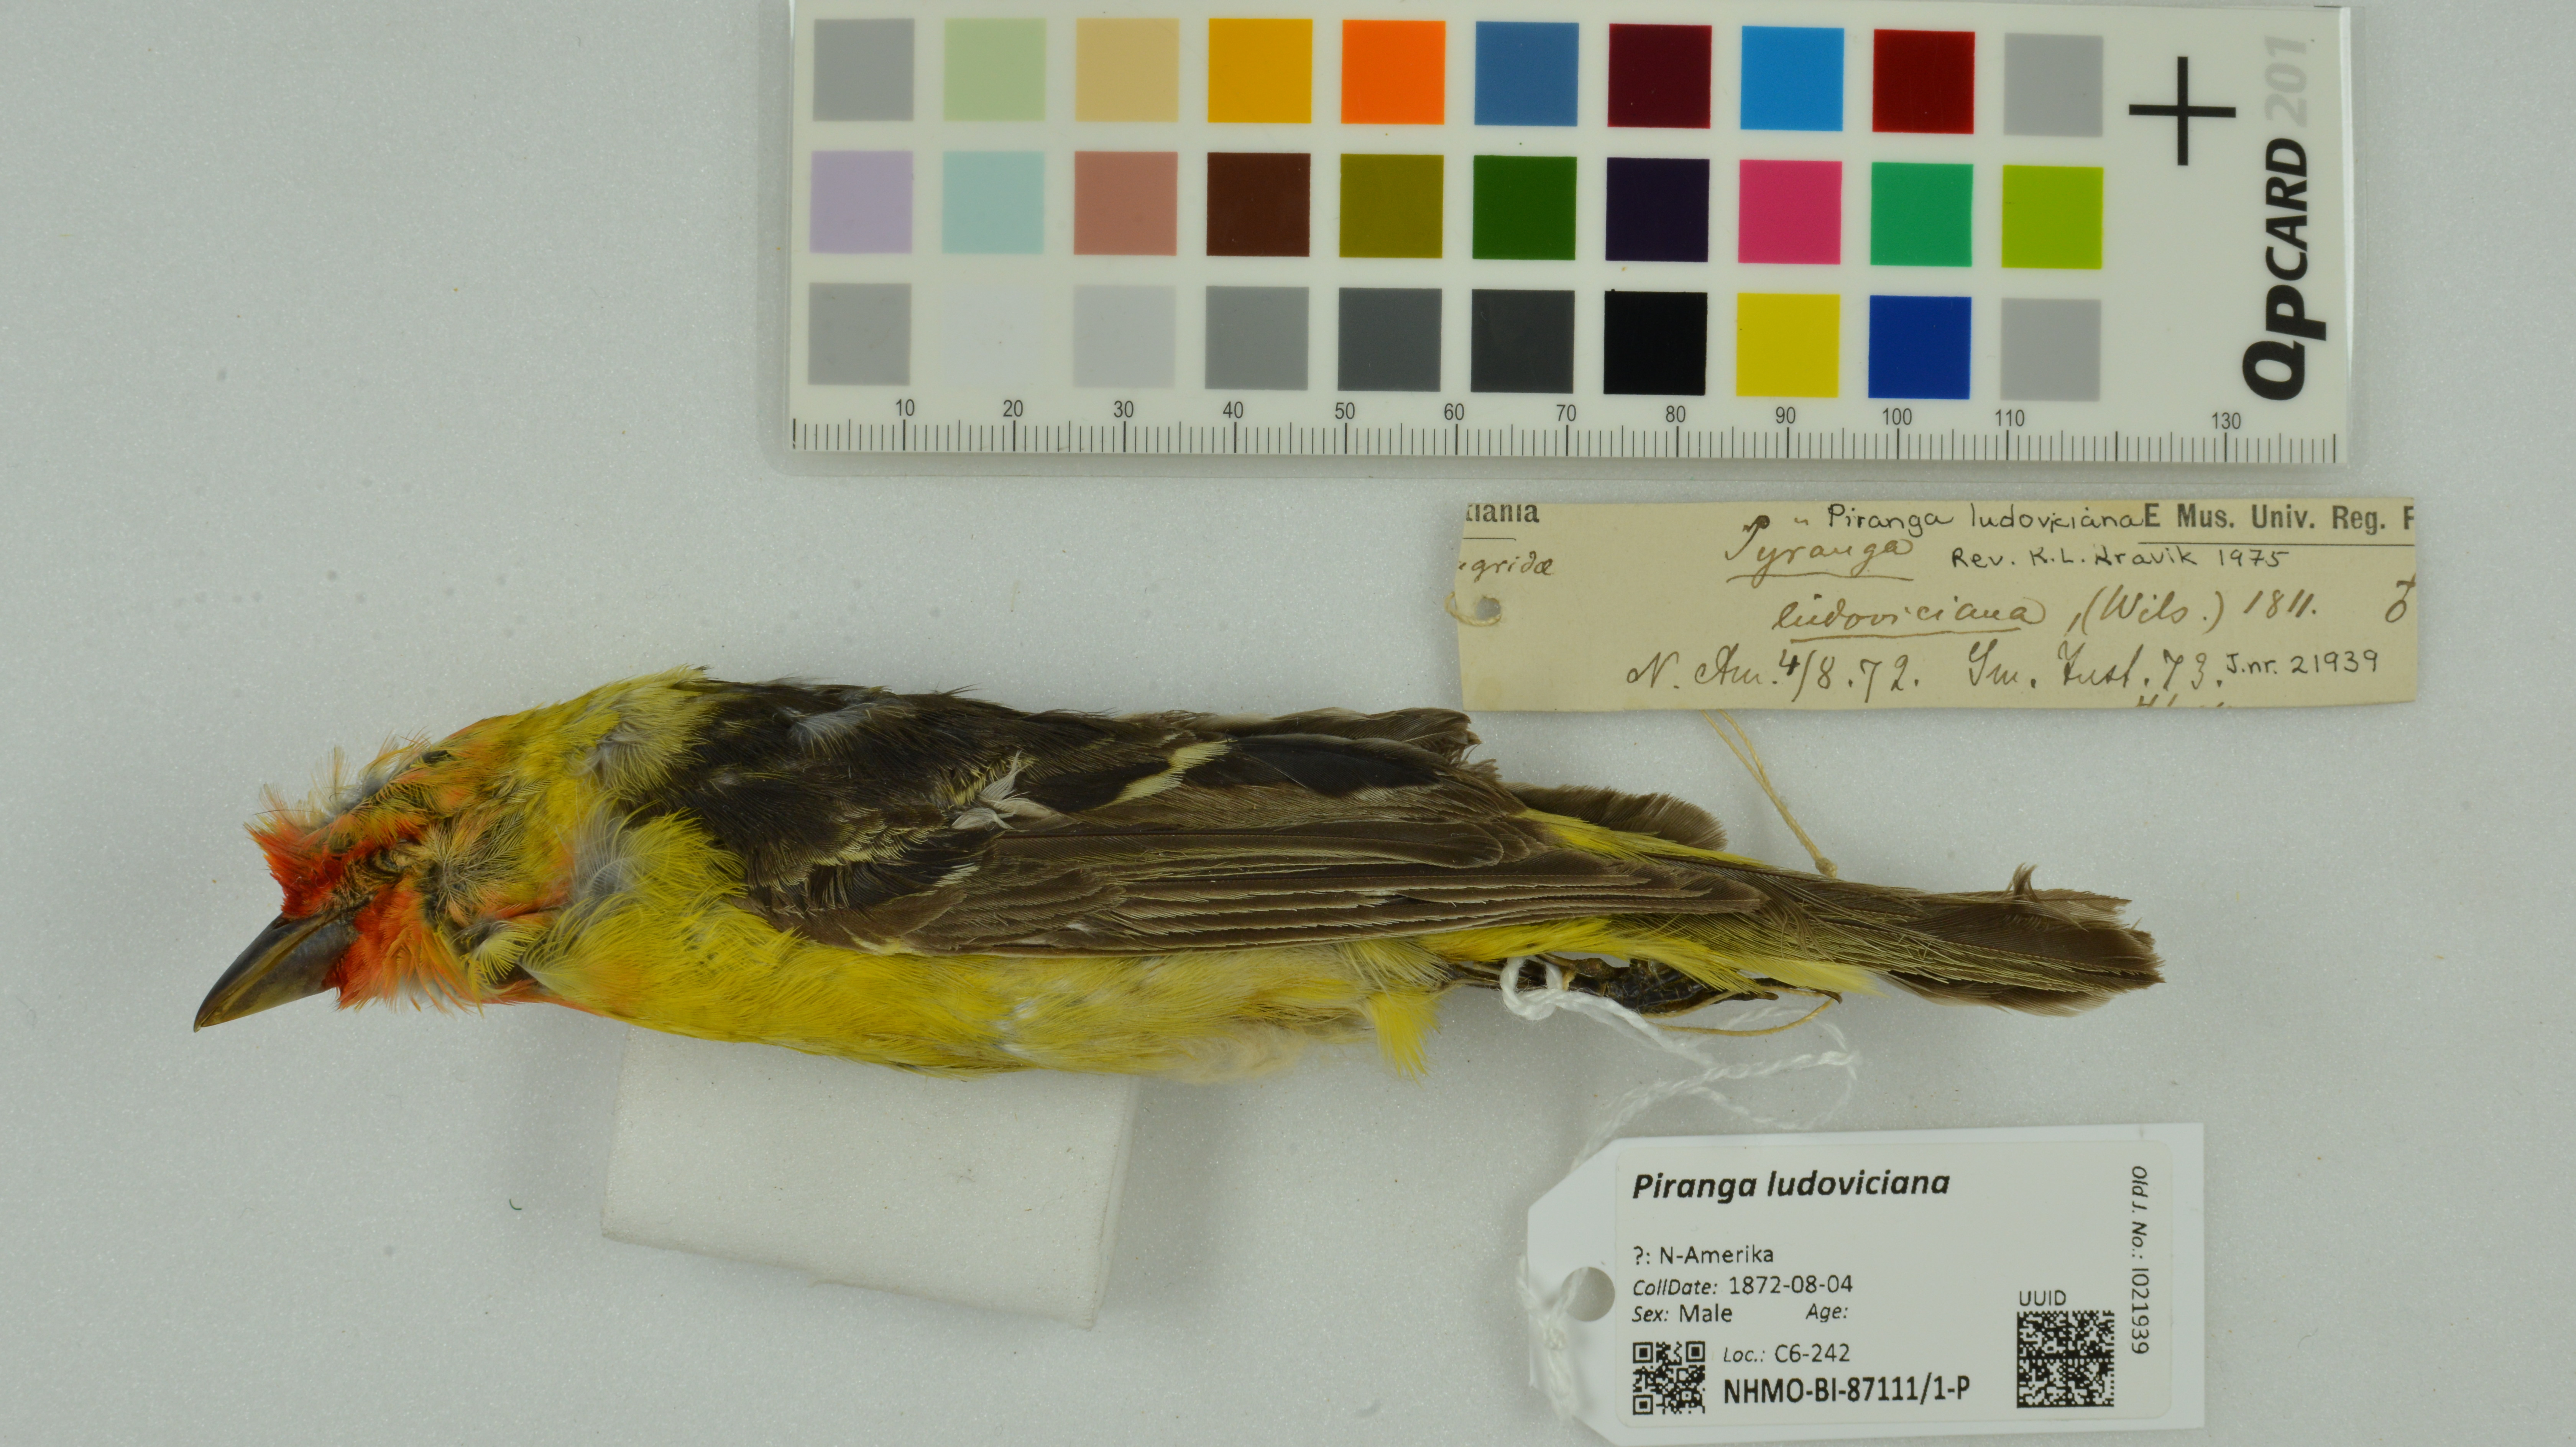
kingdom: Animalia
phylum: Chordata
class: Aves
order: Passeriformes
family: Cardinalidae
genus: Piranga
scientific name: Piranga ludoviciana
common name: Western tanager
